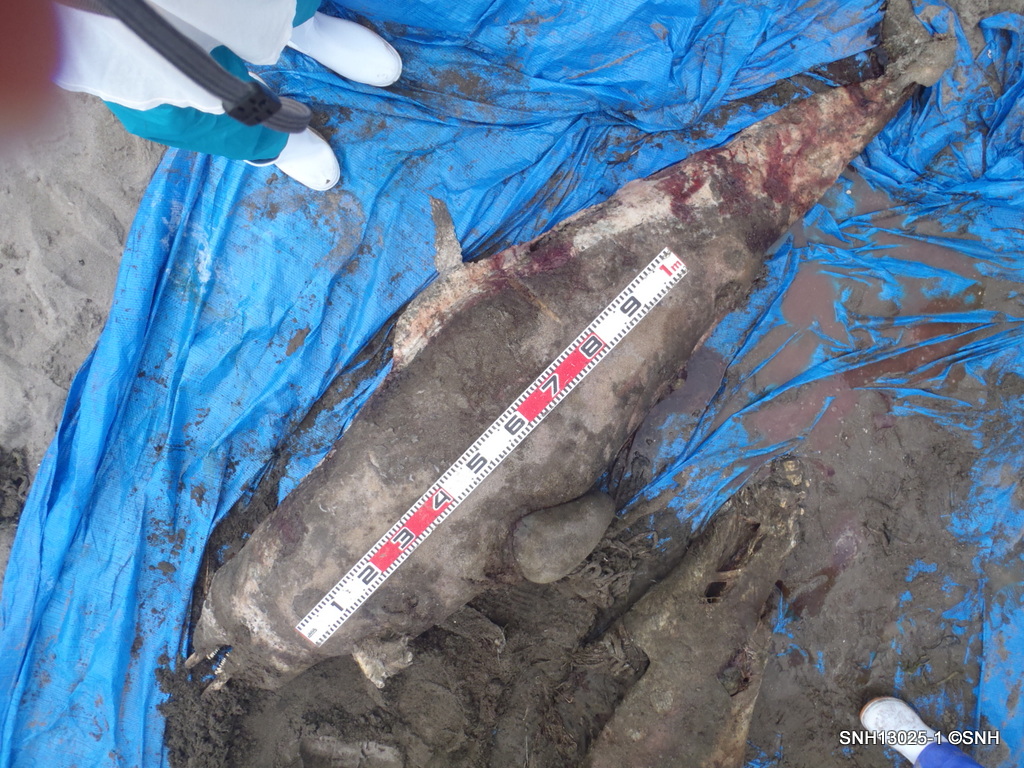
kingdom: Animalia
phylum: Chordata
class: Mammalia
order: Cetacea
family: Delphinidae
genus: Lagenorhynchus
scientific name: Lagenorhynchus obliquidens
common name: Pacific white-sided dolphin
